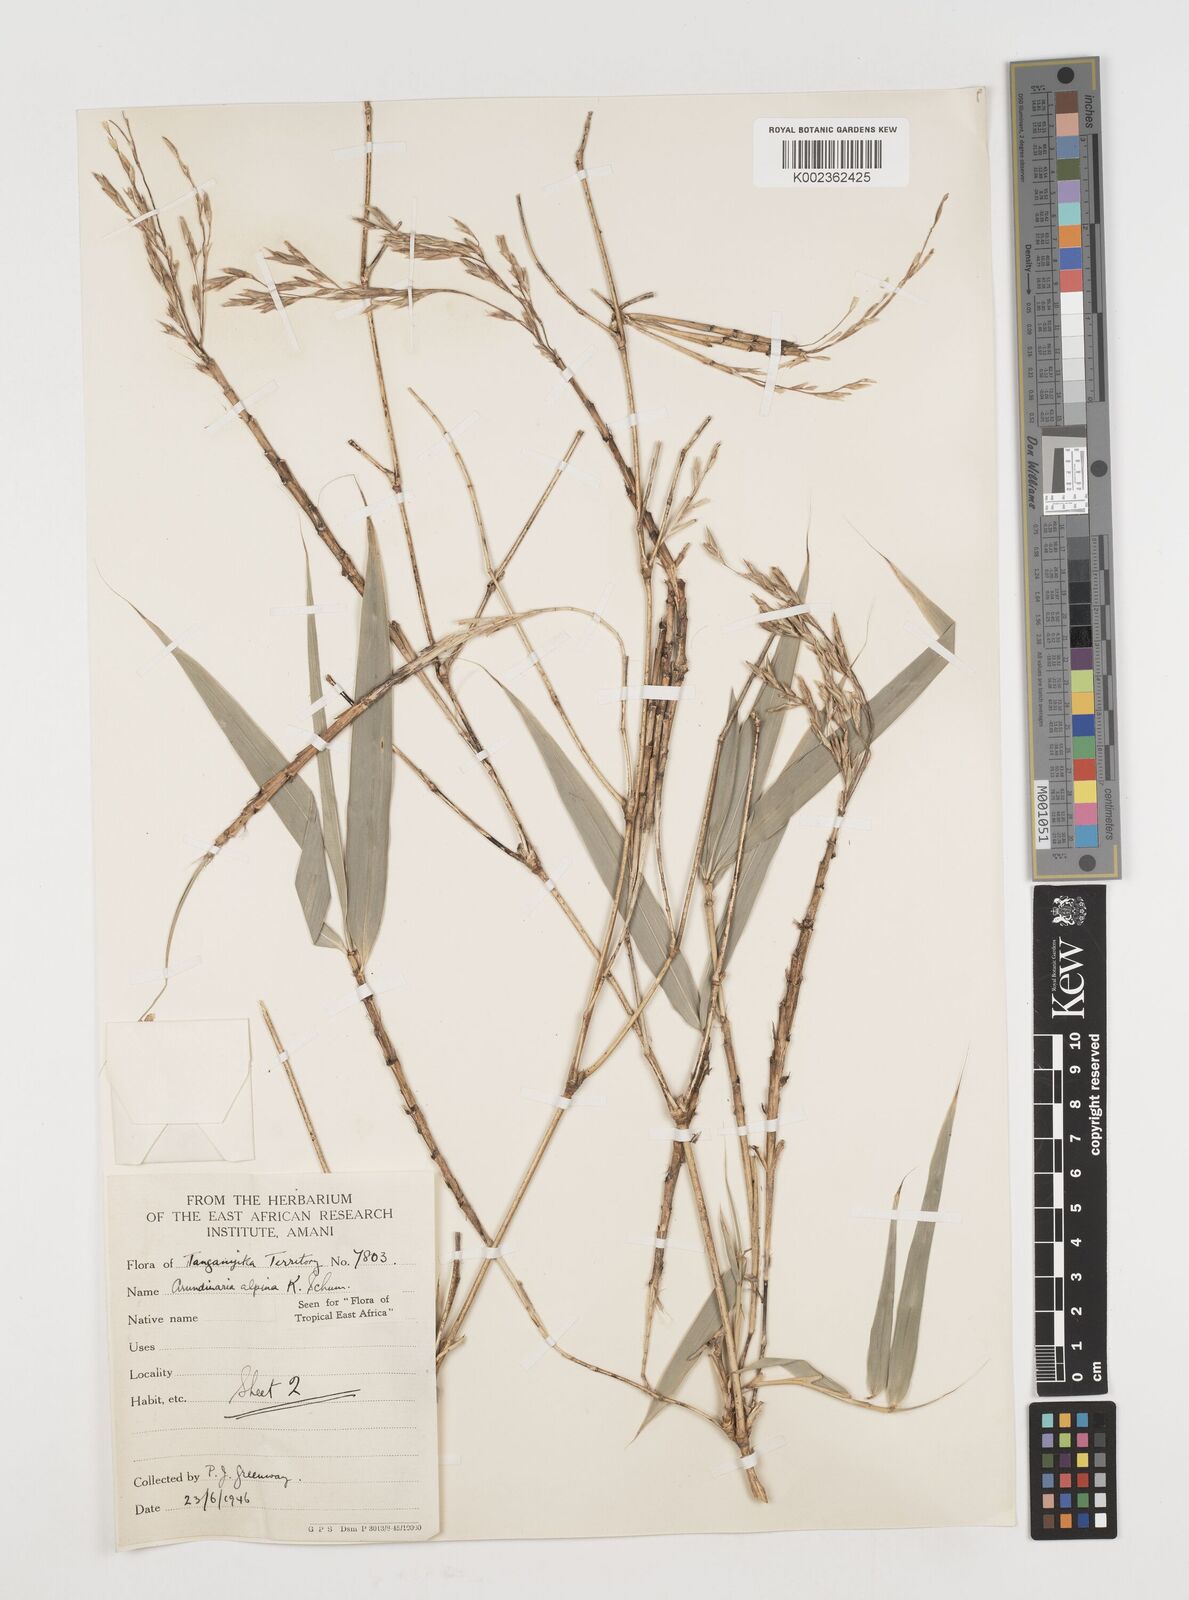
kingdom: Plantae
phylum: Tracheophyta
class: Liliopsida
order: Poales
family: Poaceae
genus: Oldeania
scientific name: Oldeania alpina
